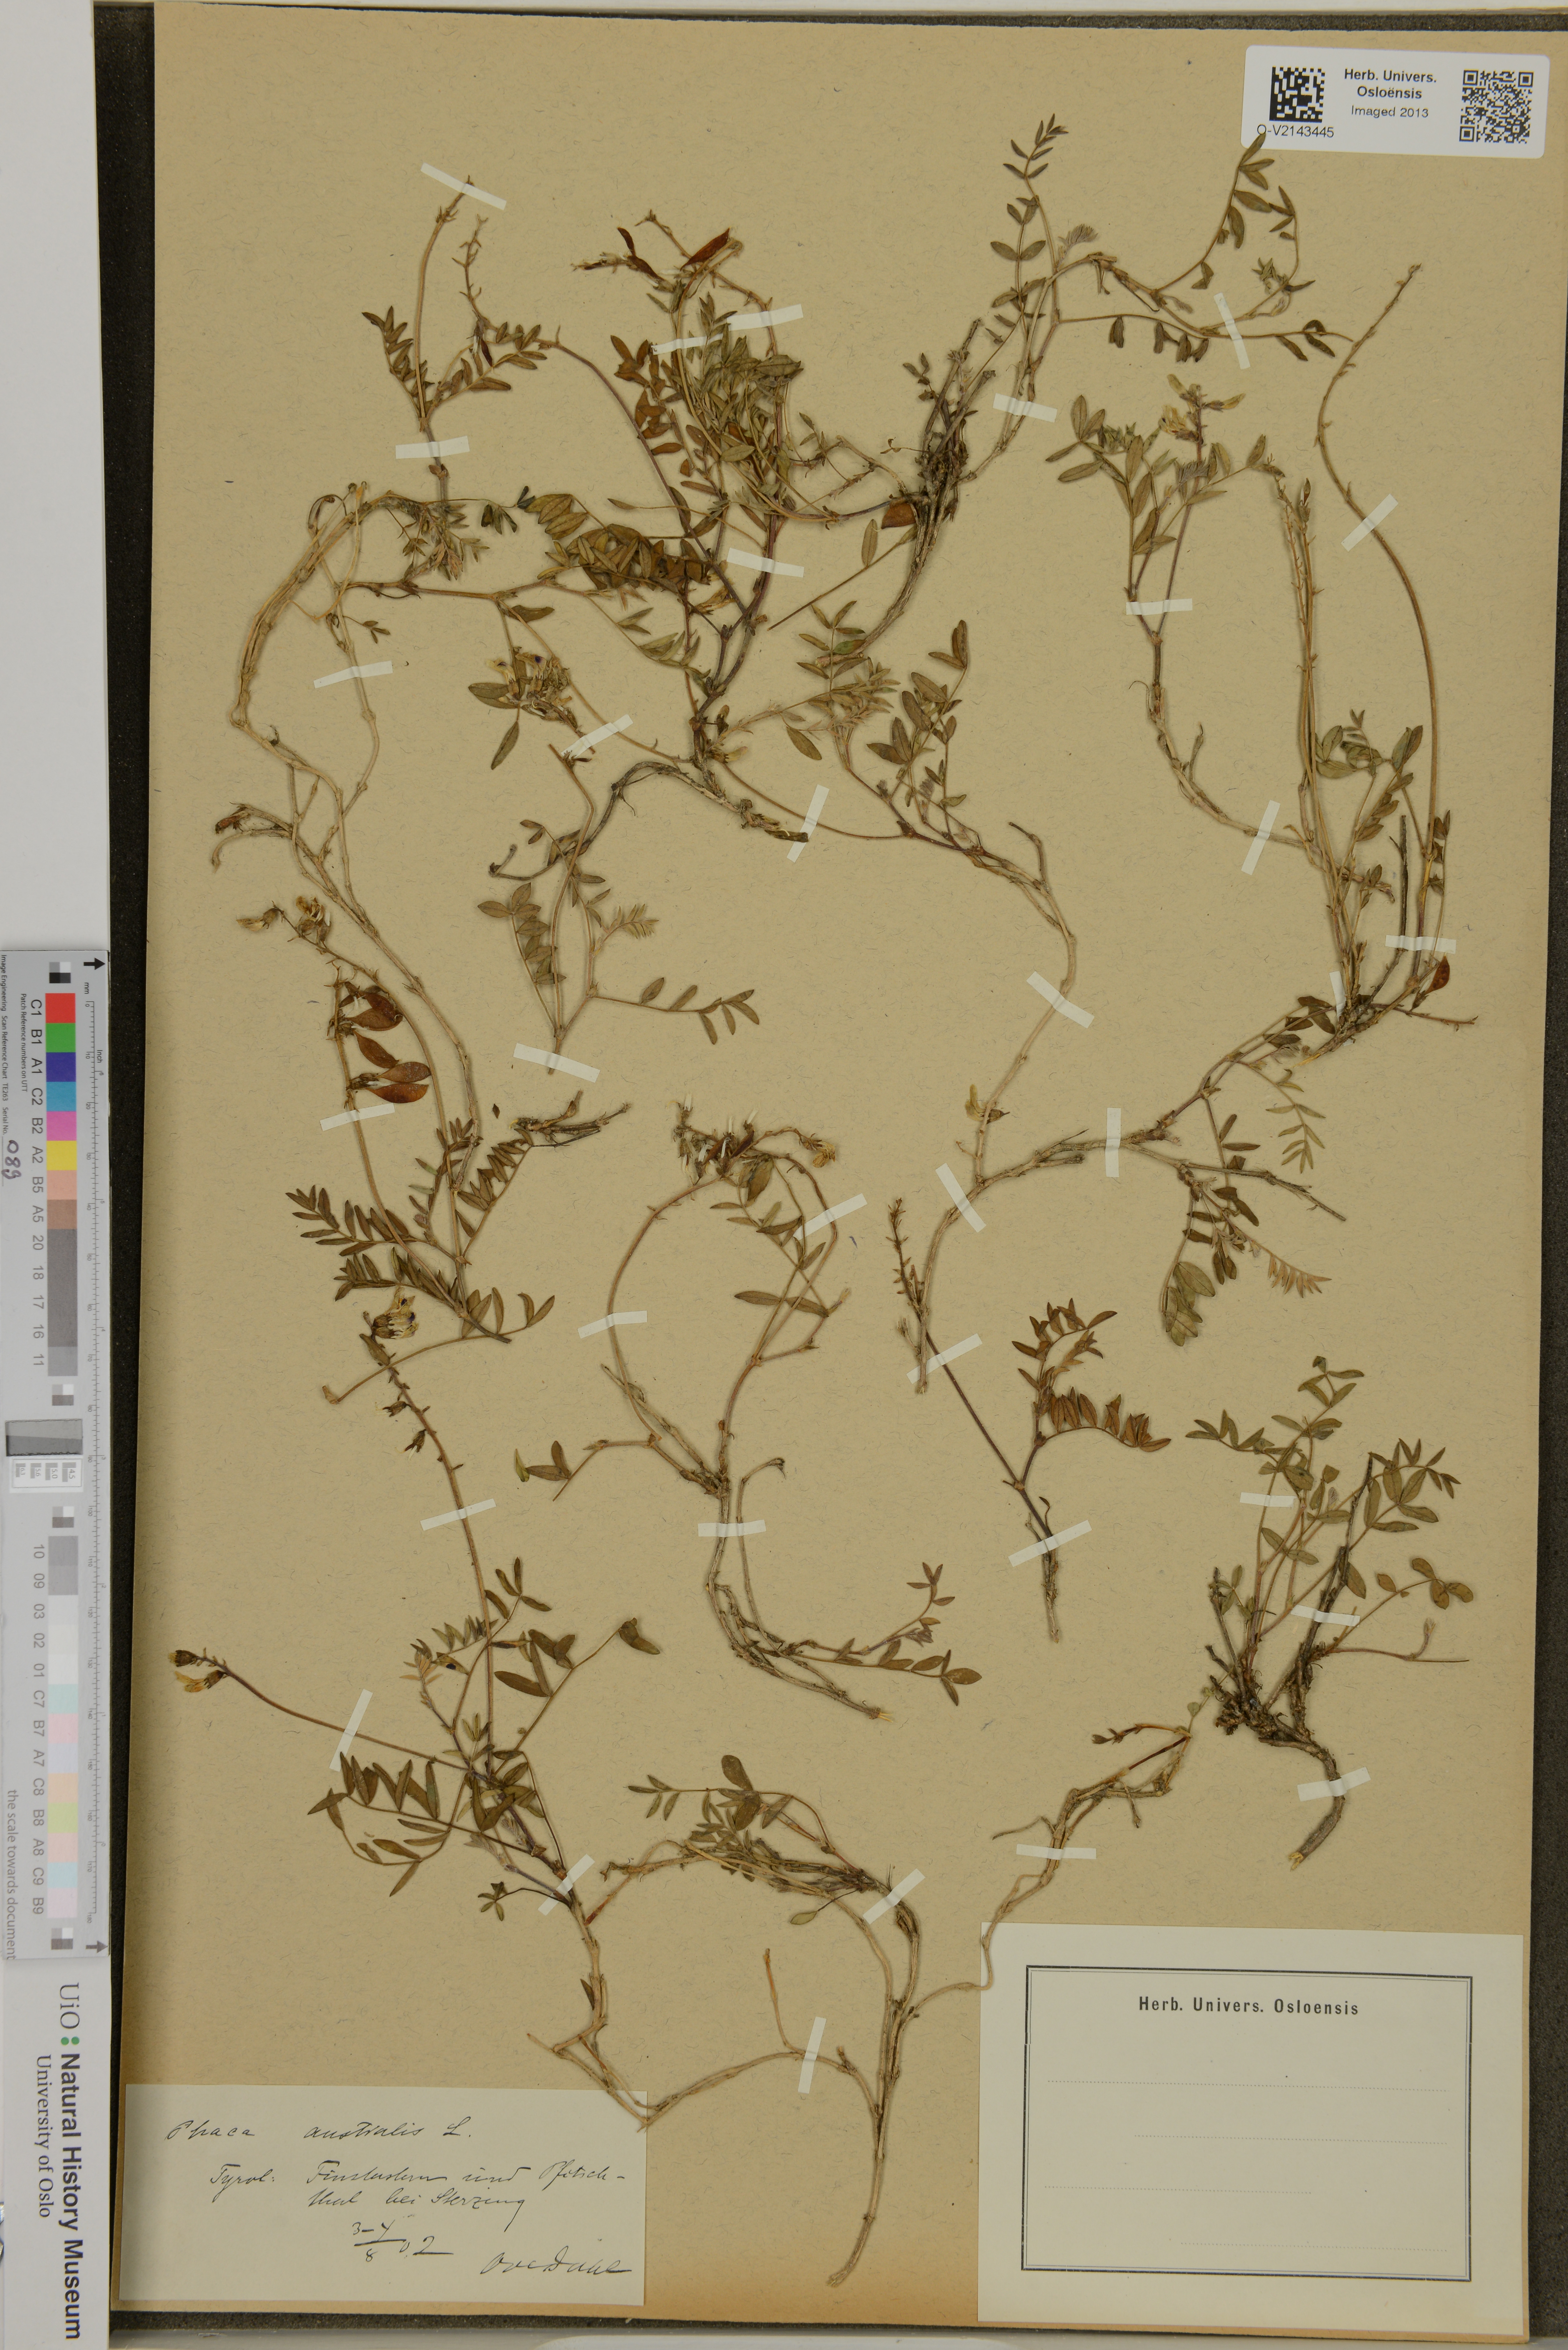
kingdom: Plantae
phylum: Tracheophyta
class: Magnoliopsida
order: Fabales
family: Fabaceae
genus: Astragalus
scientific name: Astragalus australis
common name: Indian milk-vetch
